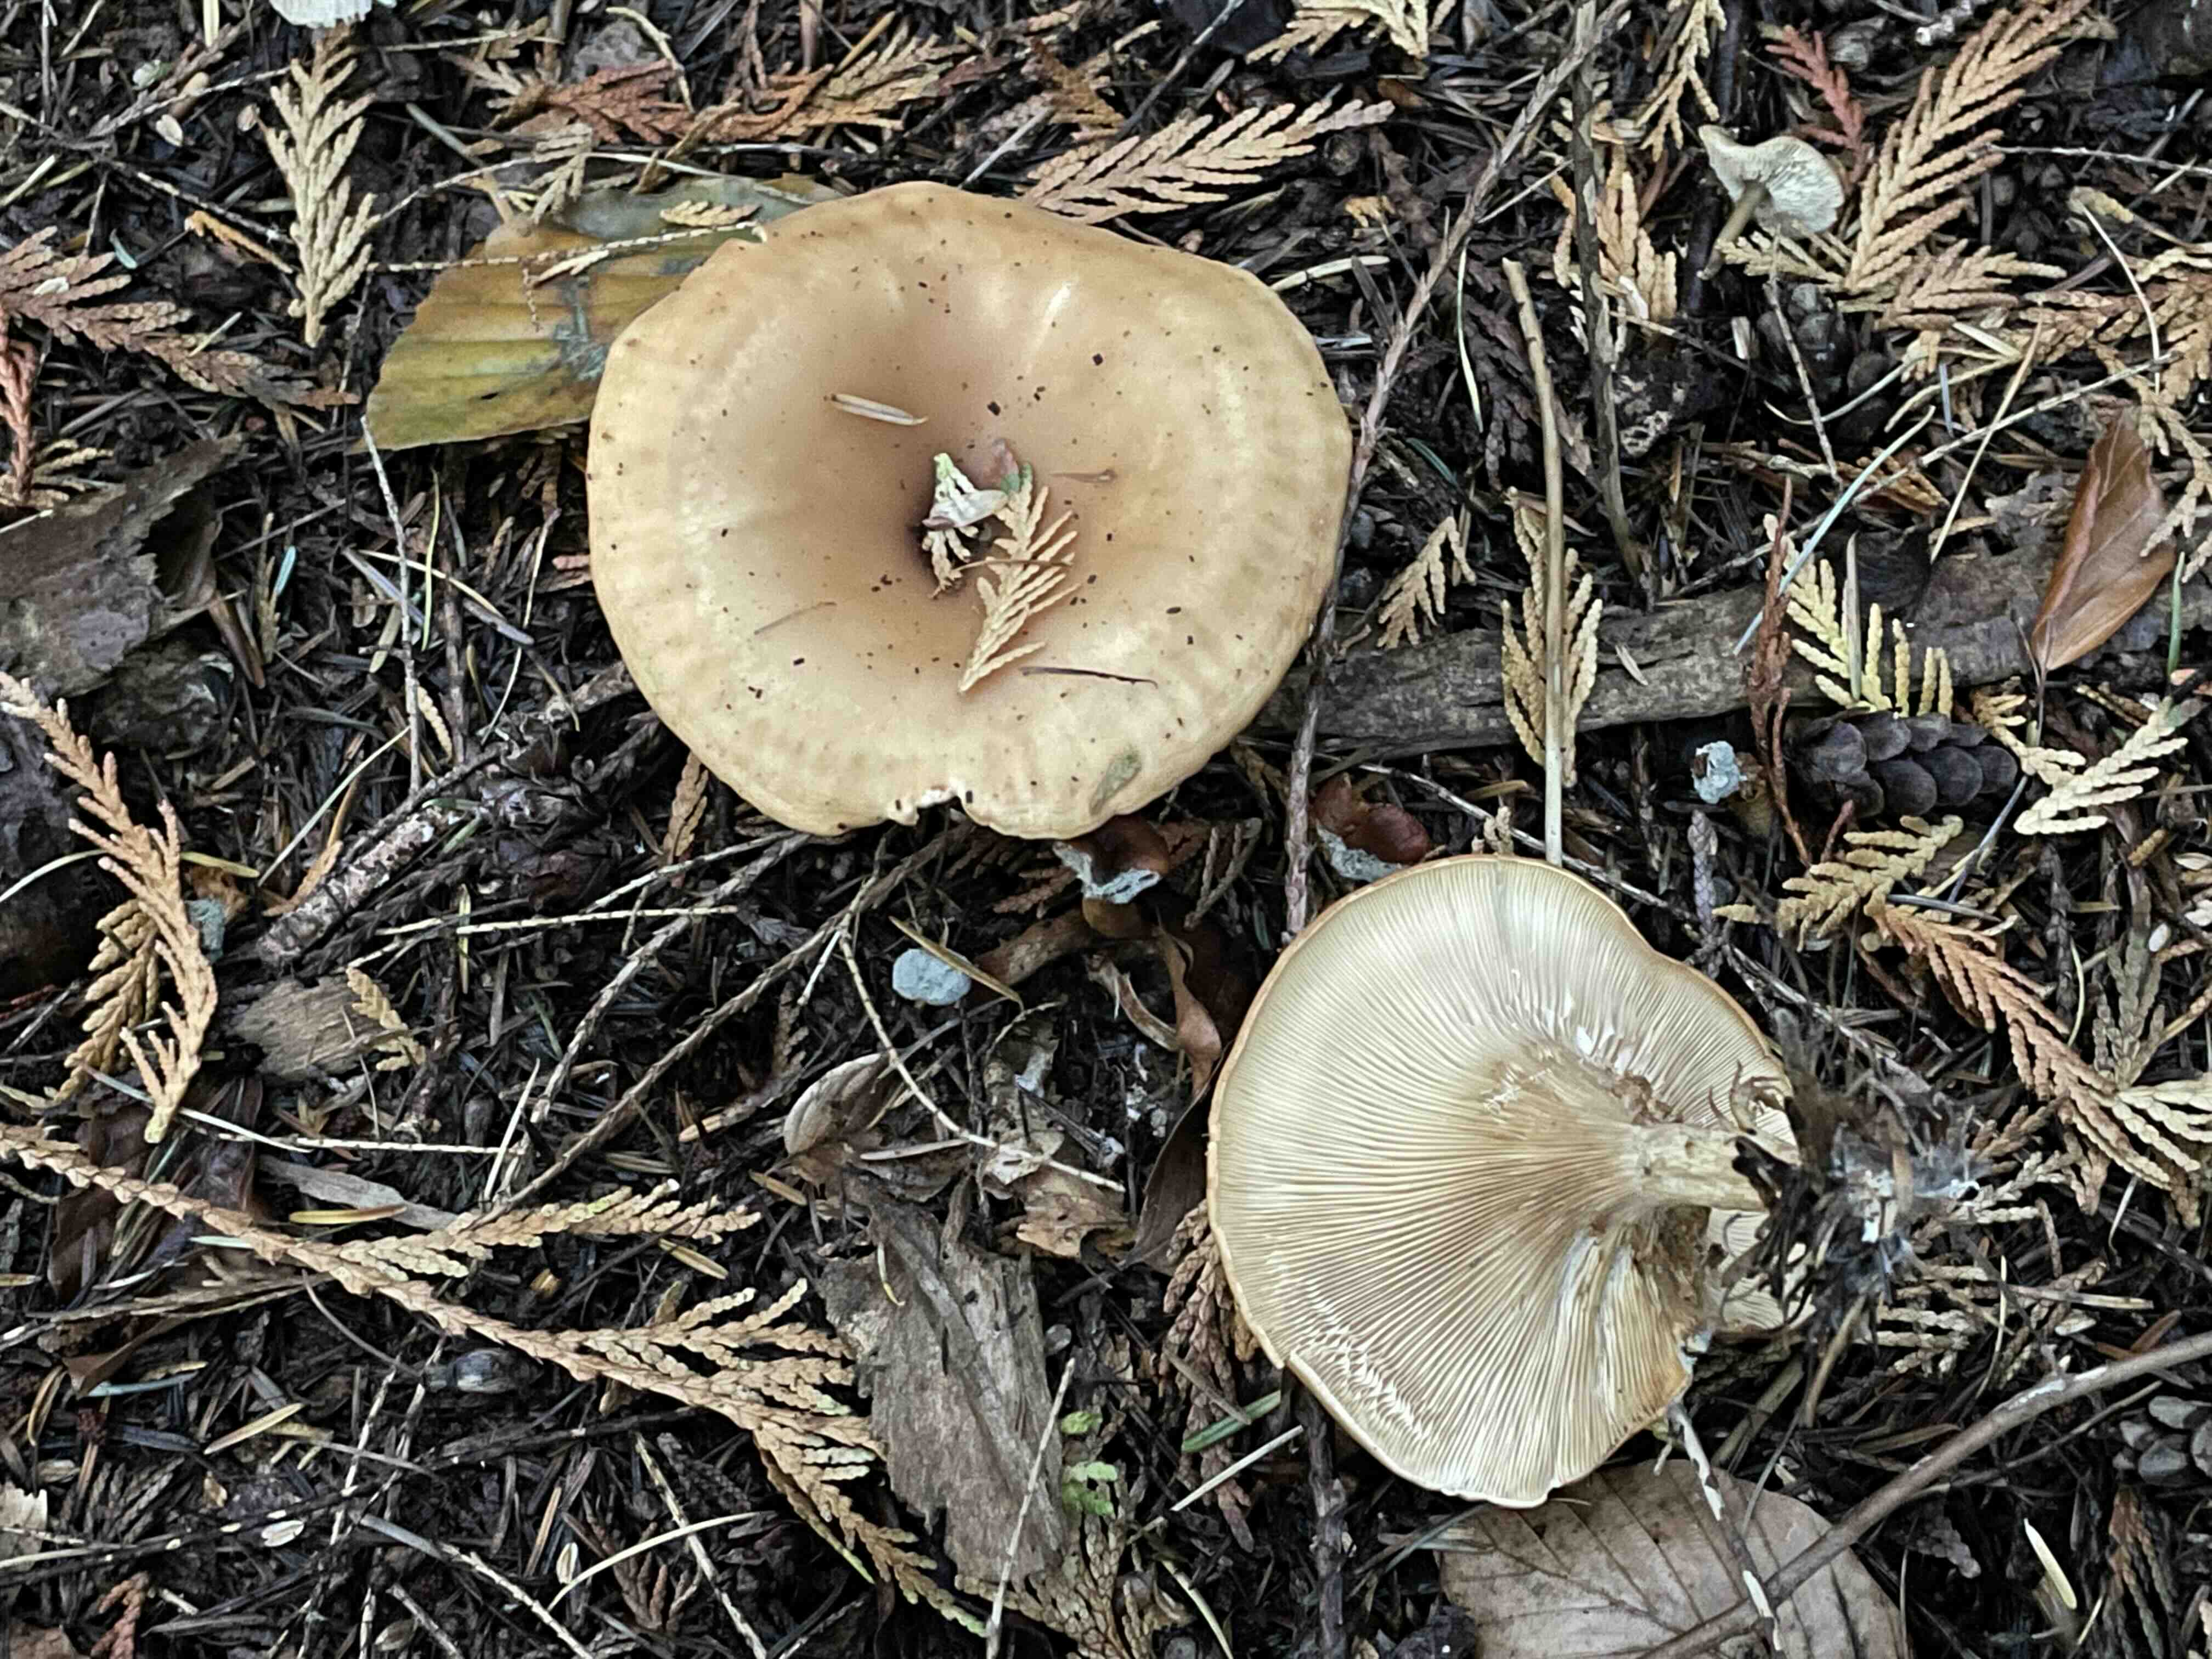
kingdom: Fungi
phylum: Basidiomycota
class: Agaricomycetes
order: Agaricales
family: Tricholomataceae
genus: Paralepista
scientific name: Paralepista flaccida
